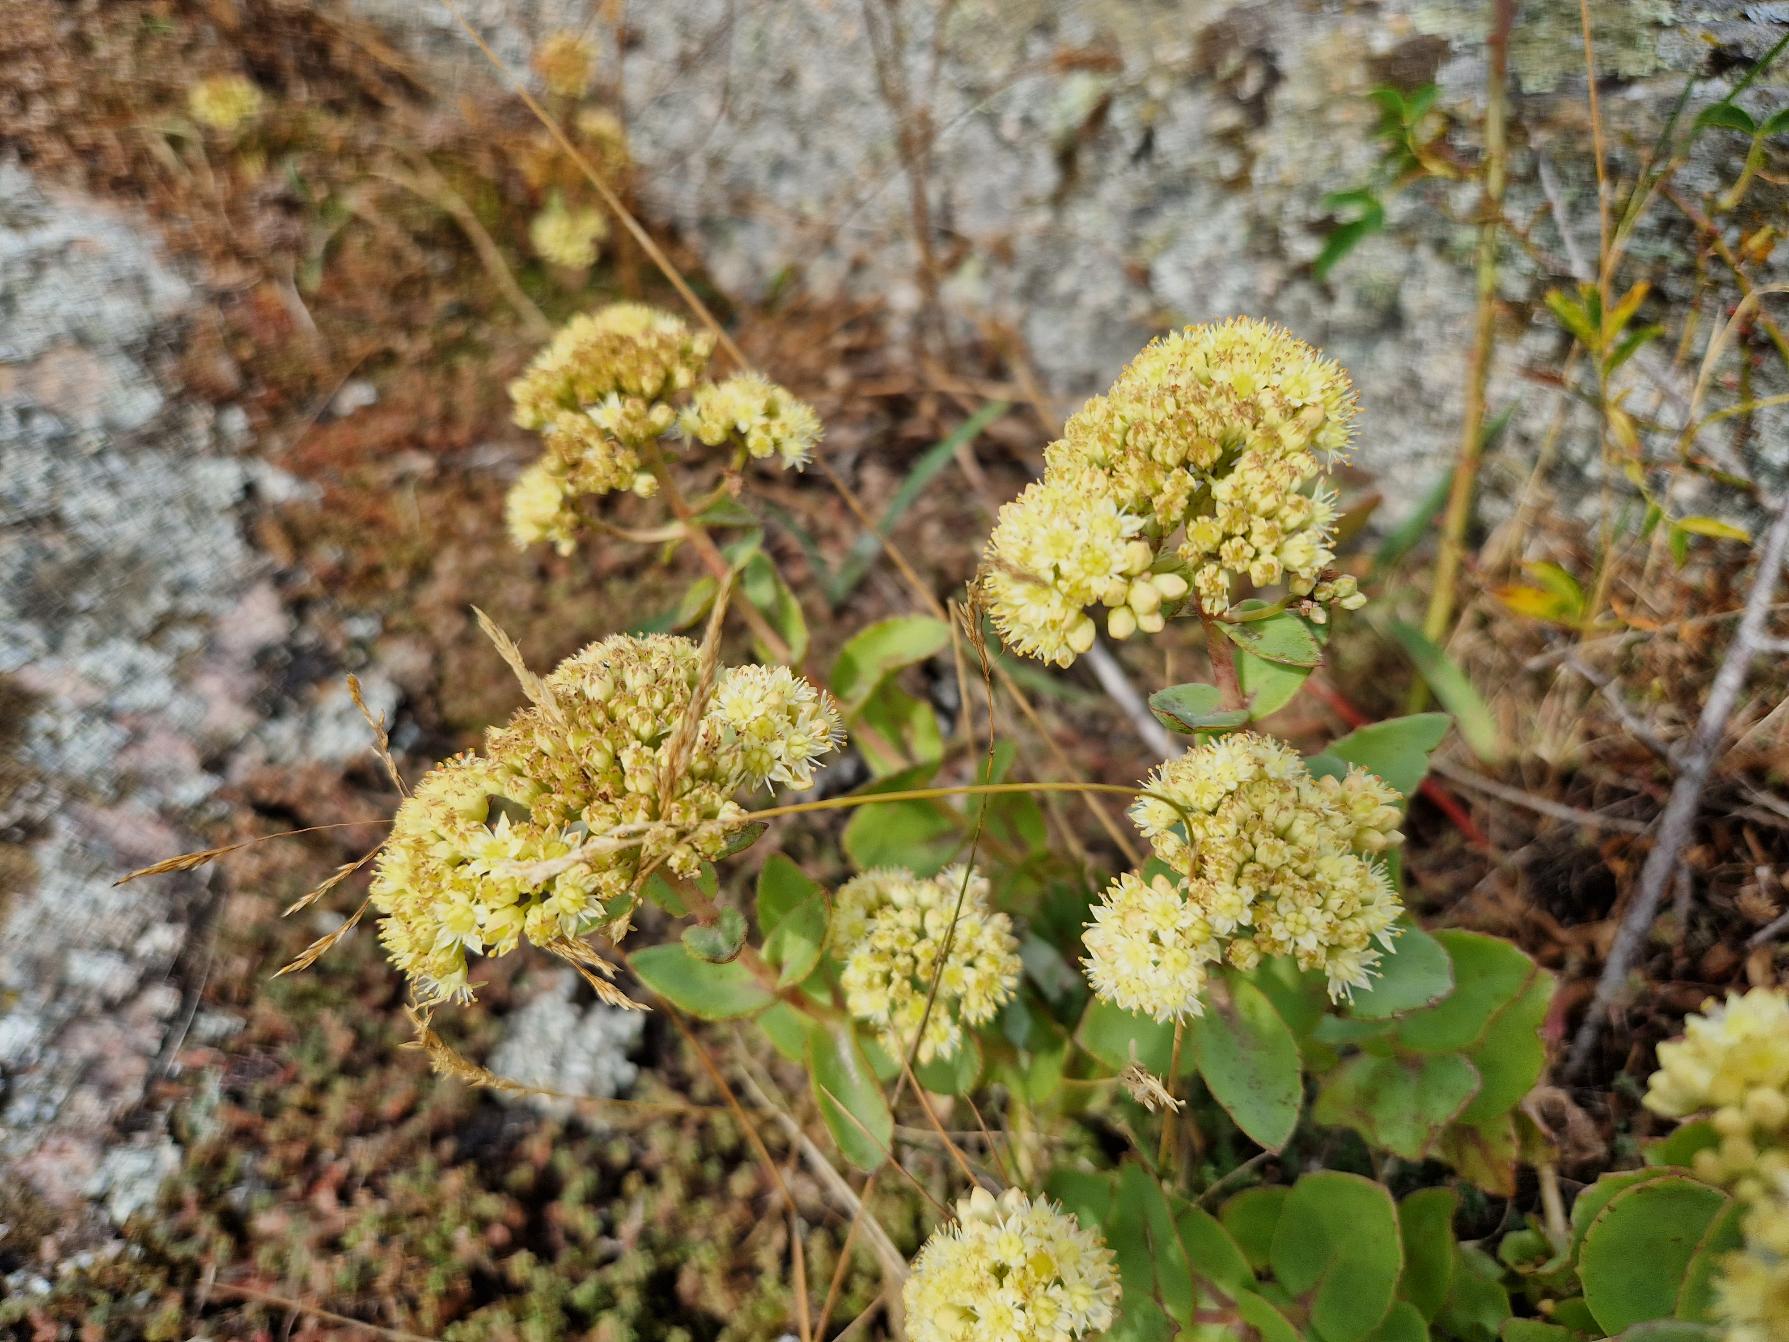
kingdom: Plantae
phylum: Tracheophyta
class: Magnoliopsida
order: Saxifragales
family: Crassulaceae
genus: Hylotelephium
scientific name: Hylotelephium maximum
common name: Almindelig sankthansurt
